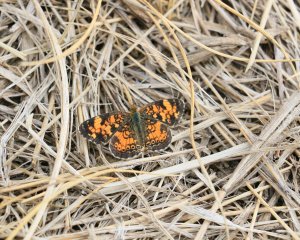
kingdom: Animalia
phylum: Arthropoda
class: Insecta
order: Lepidoptera
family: Nymphalidae
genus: Phyciodes
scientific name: Phyciodes tharos
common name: Pearl Crescent
